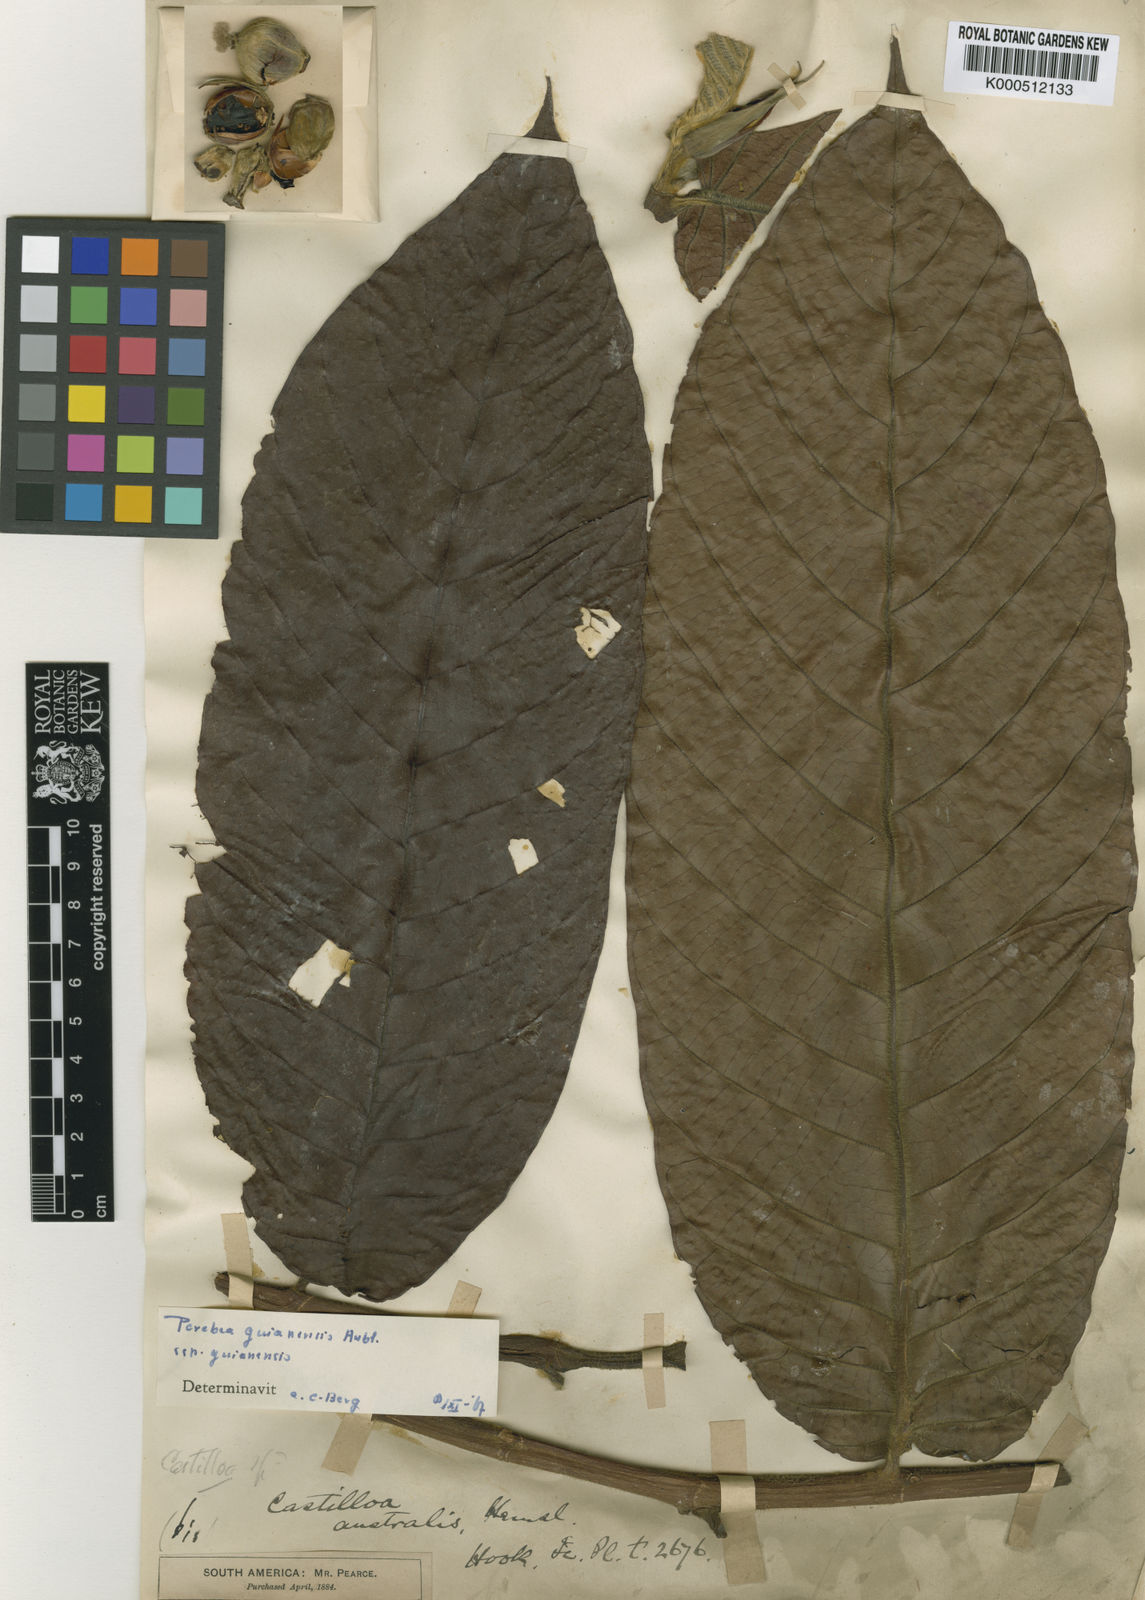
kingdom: Plantae
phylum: Tracheophyta
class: Magnoliopsida
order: Rosales
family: Moraceae
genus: Perebea
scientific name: Perebea guianensis
